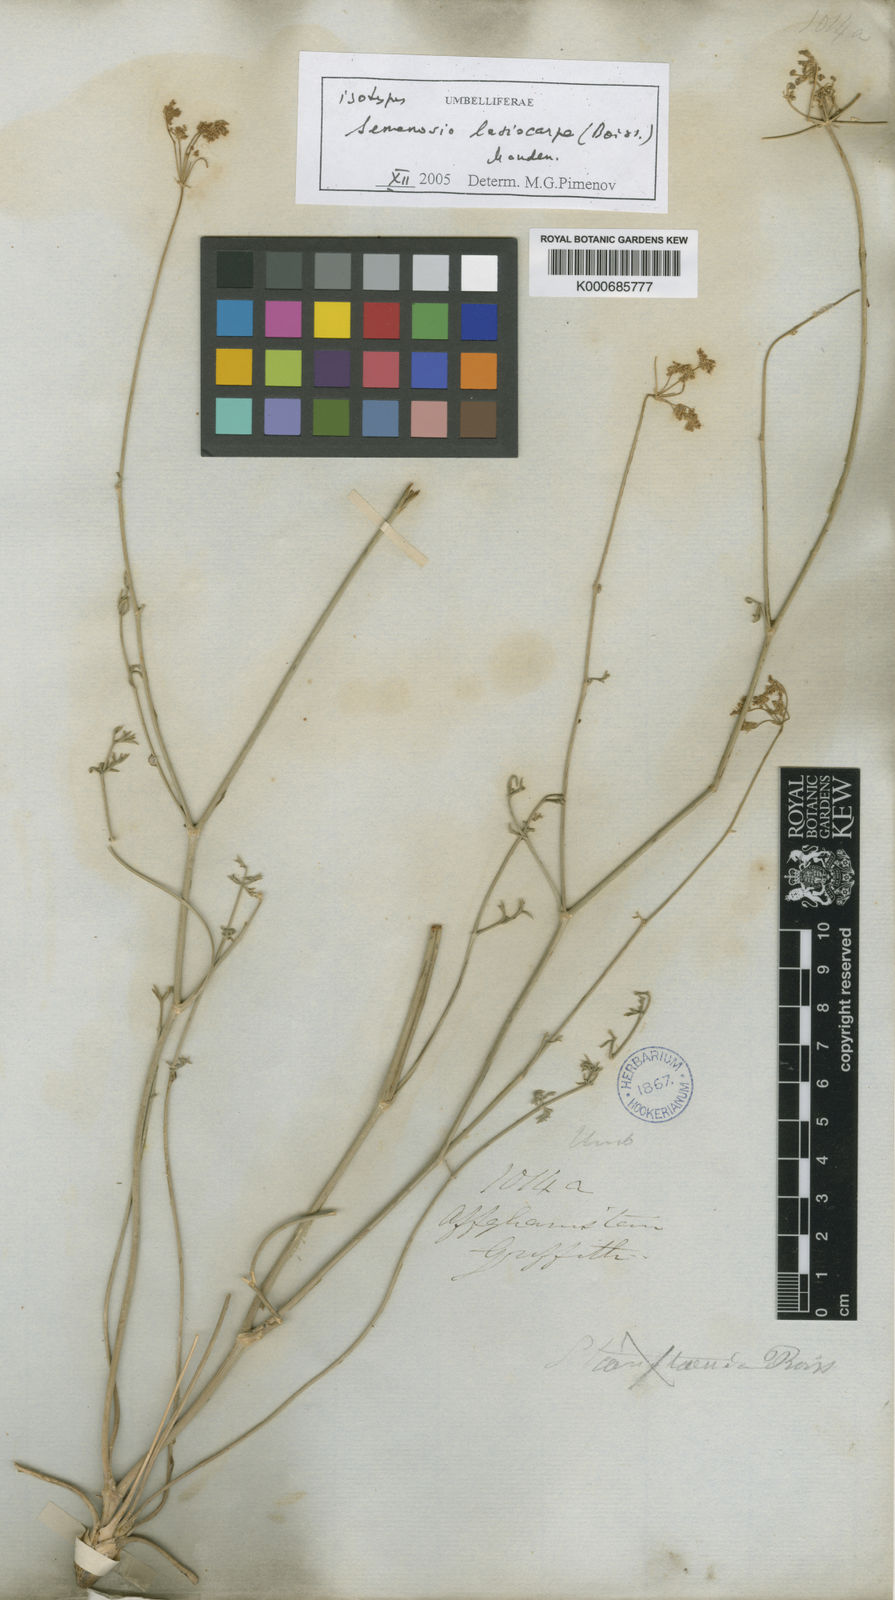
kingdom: Plantae
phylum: Tracheophyta
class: Magnoliopsida
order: Apiales
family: Apiaceae
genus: Semenovia
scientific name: Semenovia lasiocarpa
